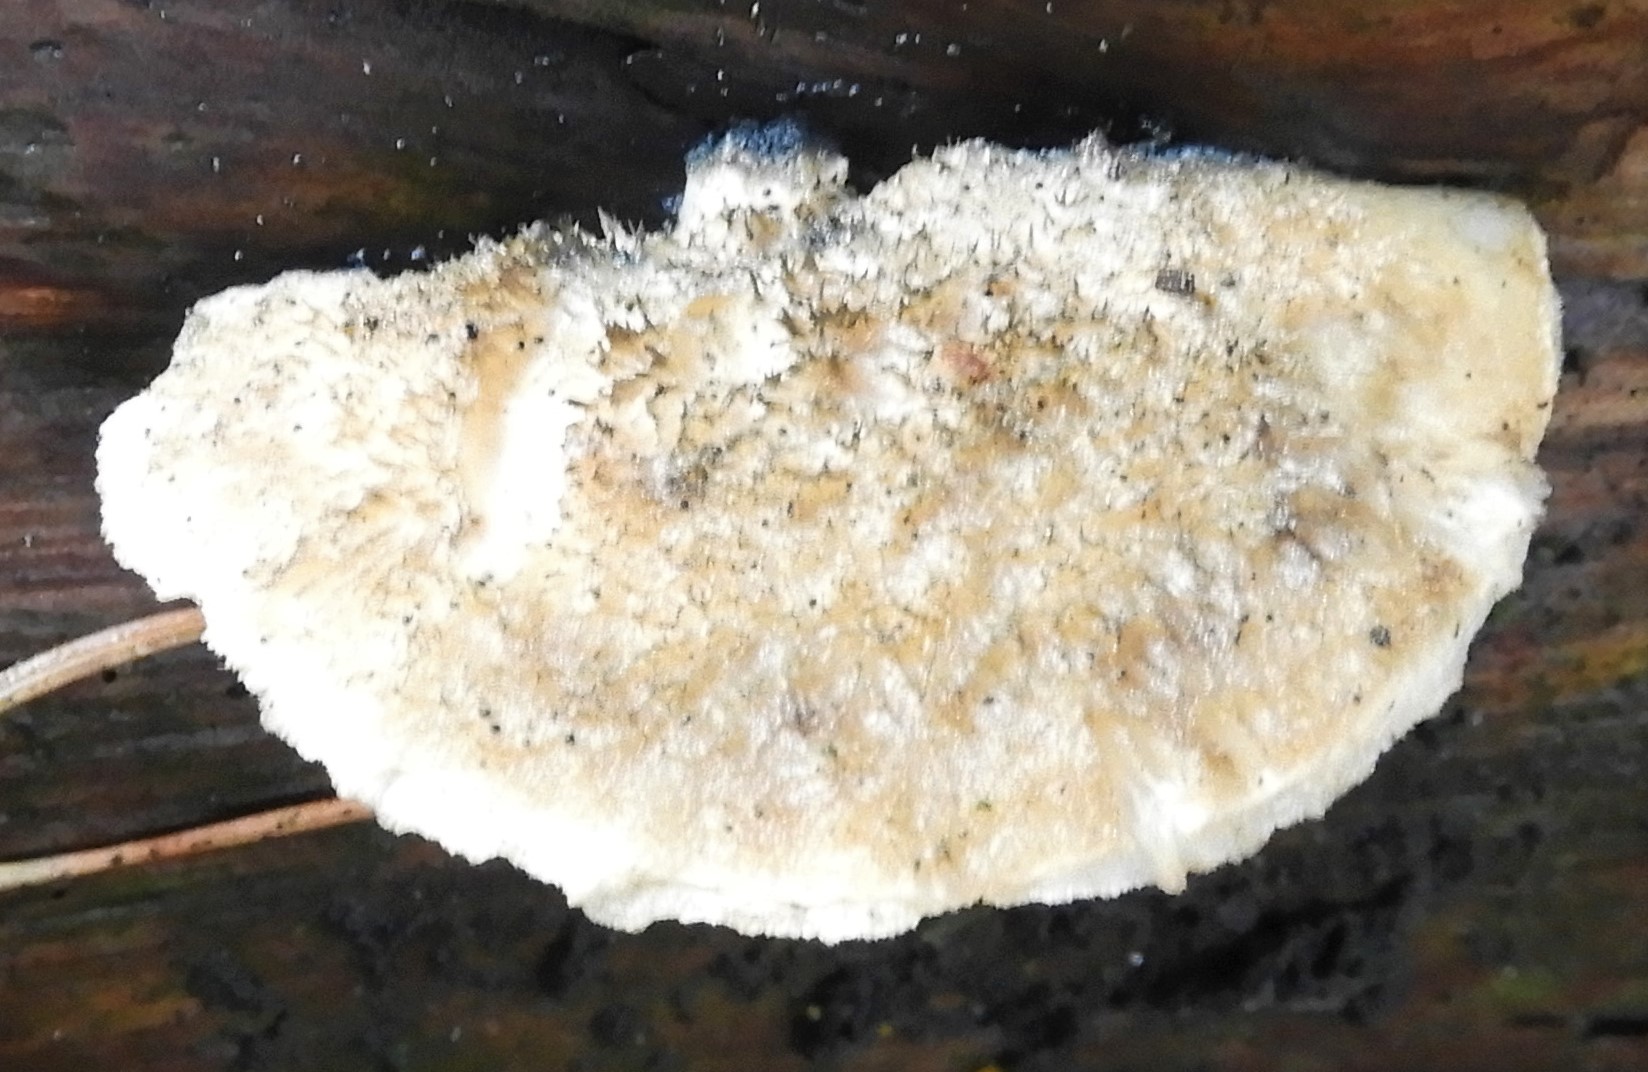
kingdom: Fungi
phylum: Basidiomycota
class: Agaricomycetes
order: Polyporales
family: Polyporaceae
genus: Cyanosporus
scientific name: Cyanosporus alni
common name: blegblå kødporesvamp
